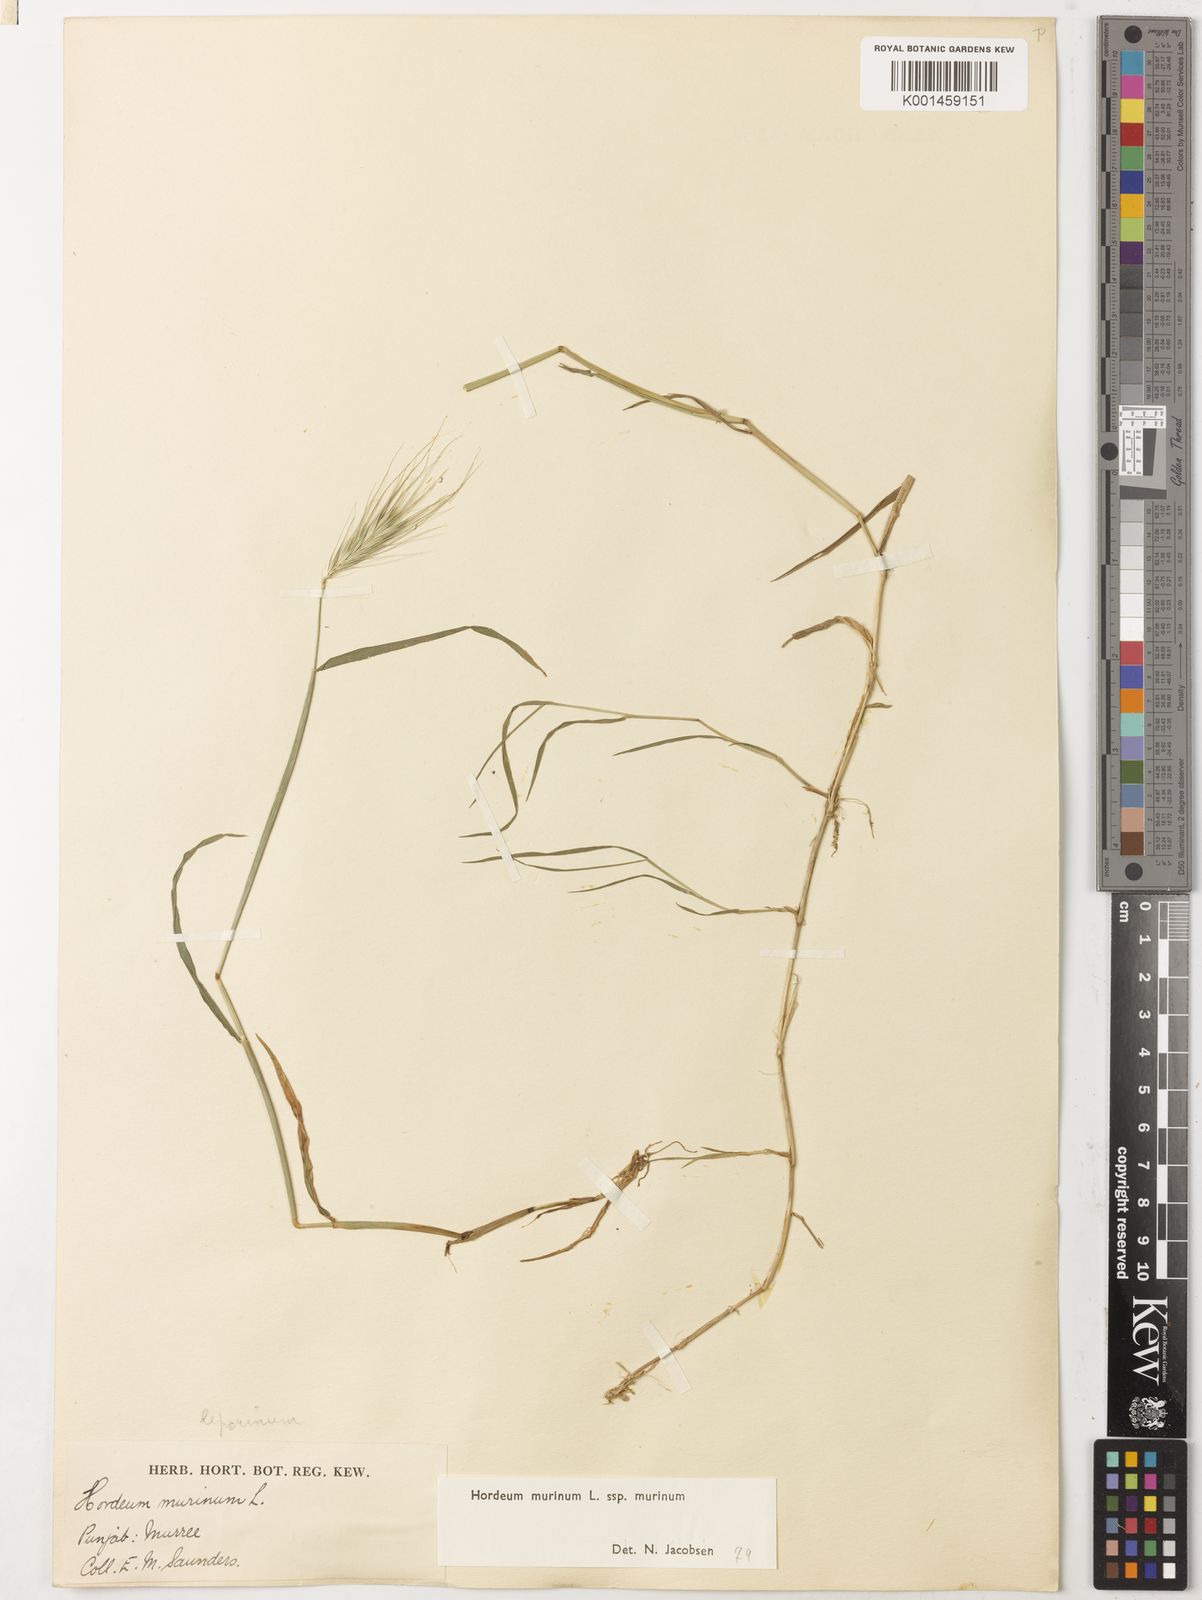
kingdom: Plantae
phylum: Tracheophyta
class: Liliopsida
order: Poales
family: Poaceae
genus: Hordeum
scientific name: Hordeum murinum
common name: Wall barley
